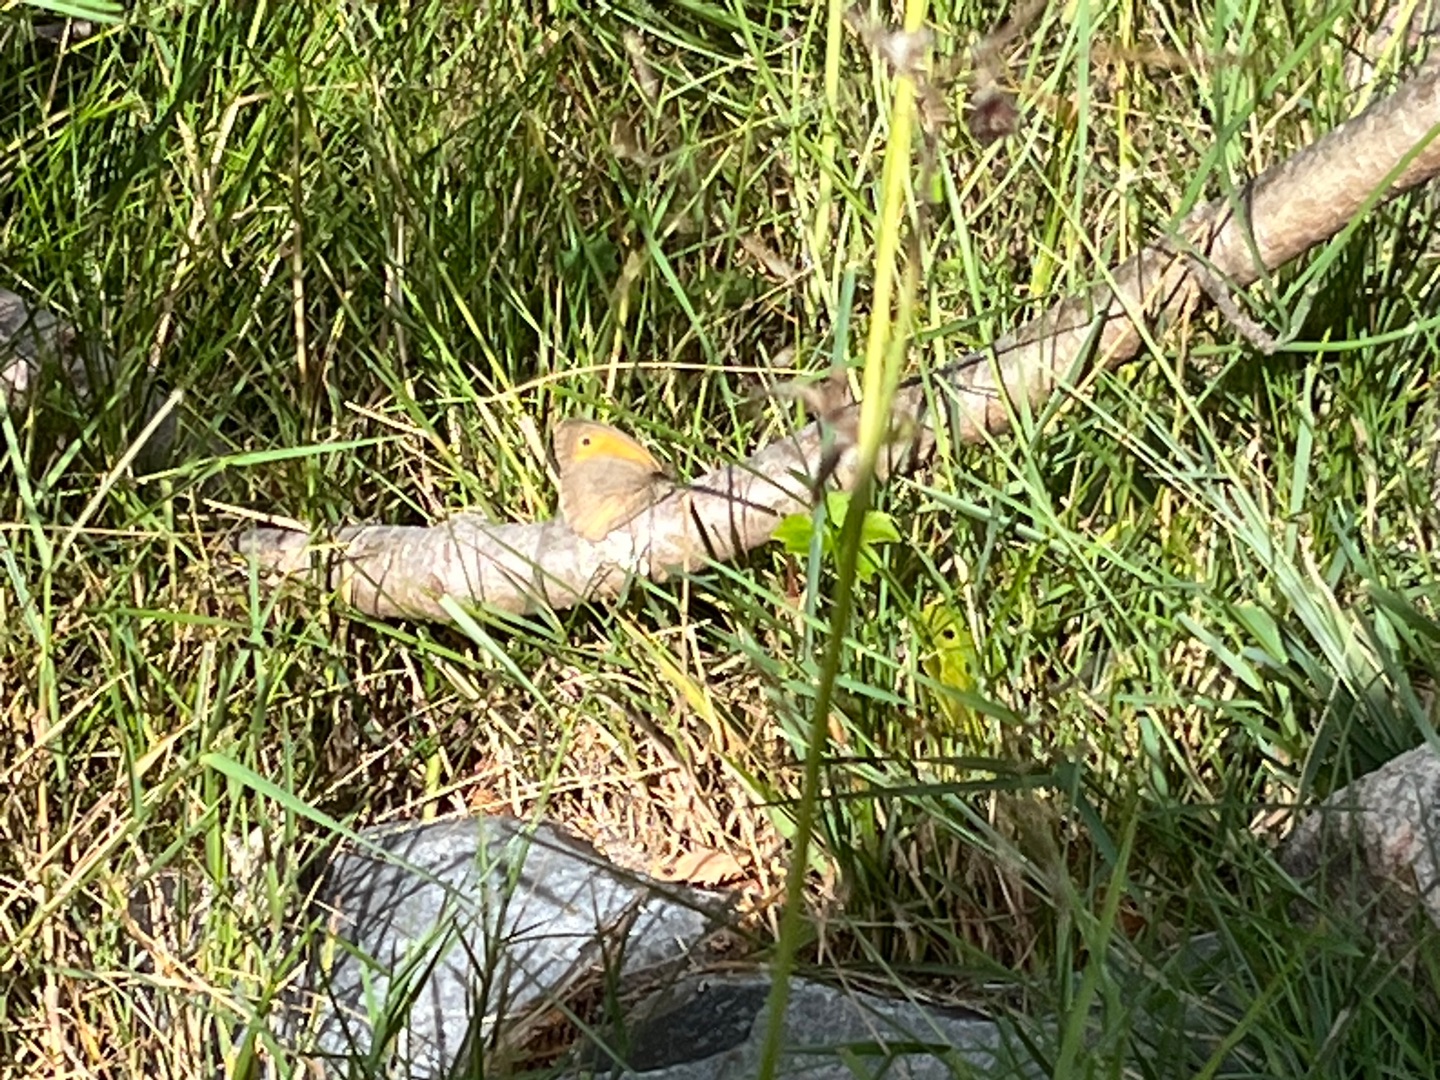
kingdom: Animalia
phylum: Arthropoda
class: Insecta
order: Lepidoptera
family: Nymphalidae
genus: Maniola
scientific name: Maniola jurtina
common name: Græsrandøje
